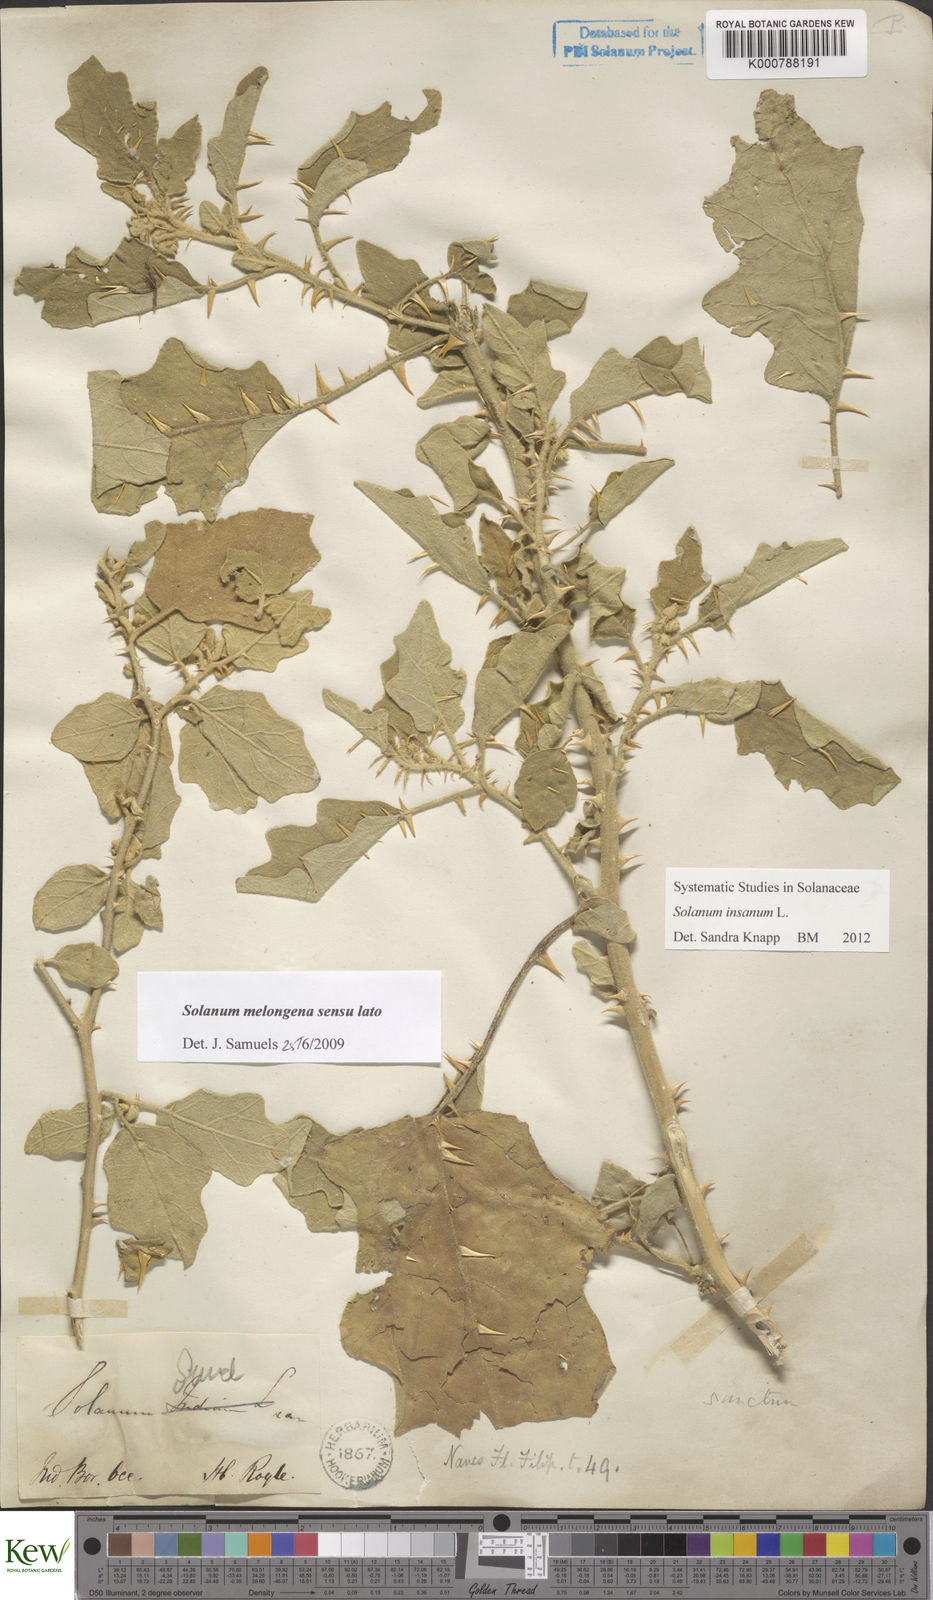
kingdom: Plantae
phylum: Tracheophyta
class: Magnoliopsida
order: Solanales
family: Solanaceae
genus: Solanum
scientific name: Solanum insanum
